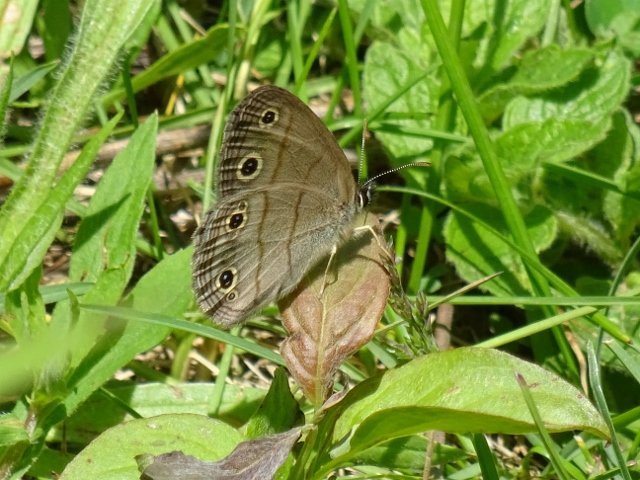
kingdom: Animalia
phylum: Arthropoda
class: Insecta
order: Lepidoptera
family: Nymphalidae
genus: Euptychia
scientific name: Euptychia cymela
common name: Little Wood Satyr
